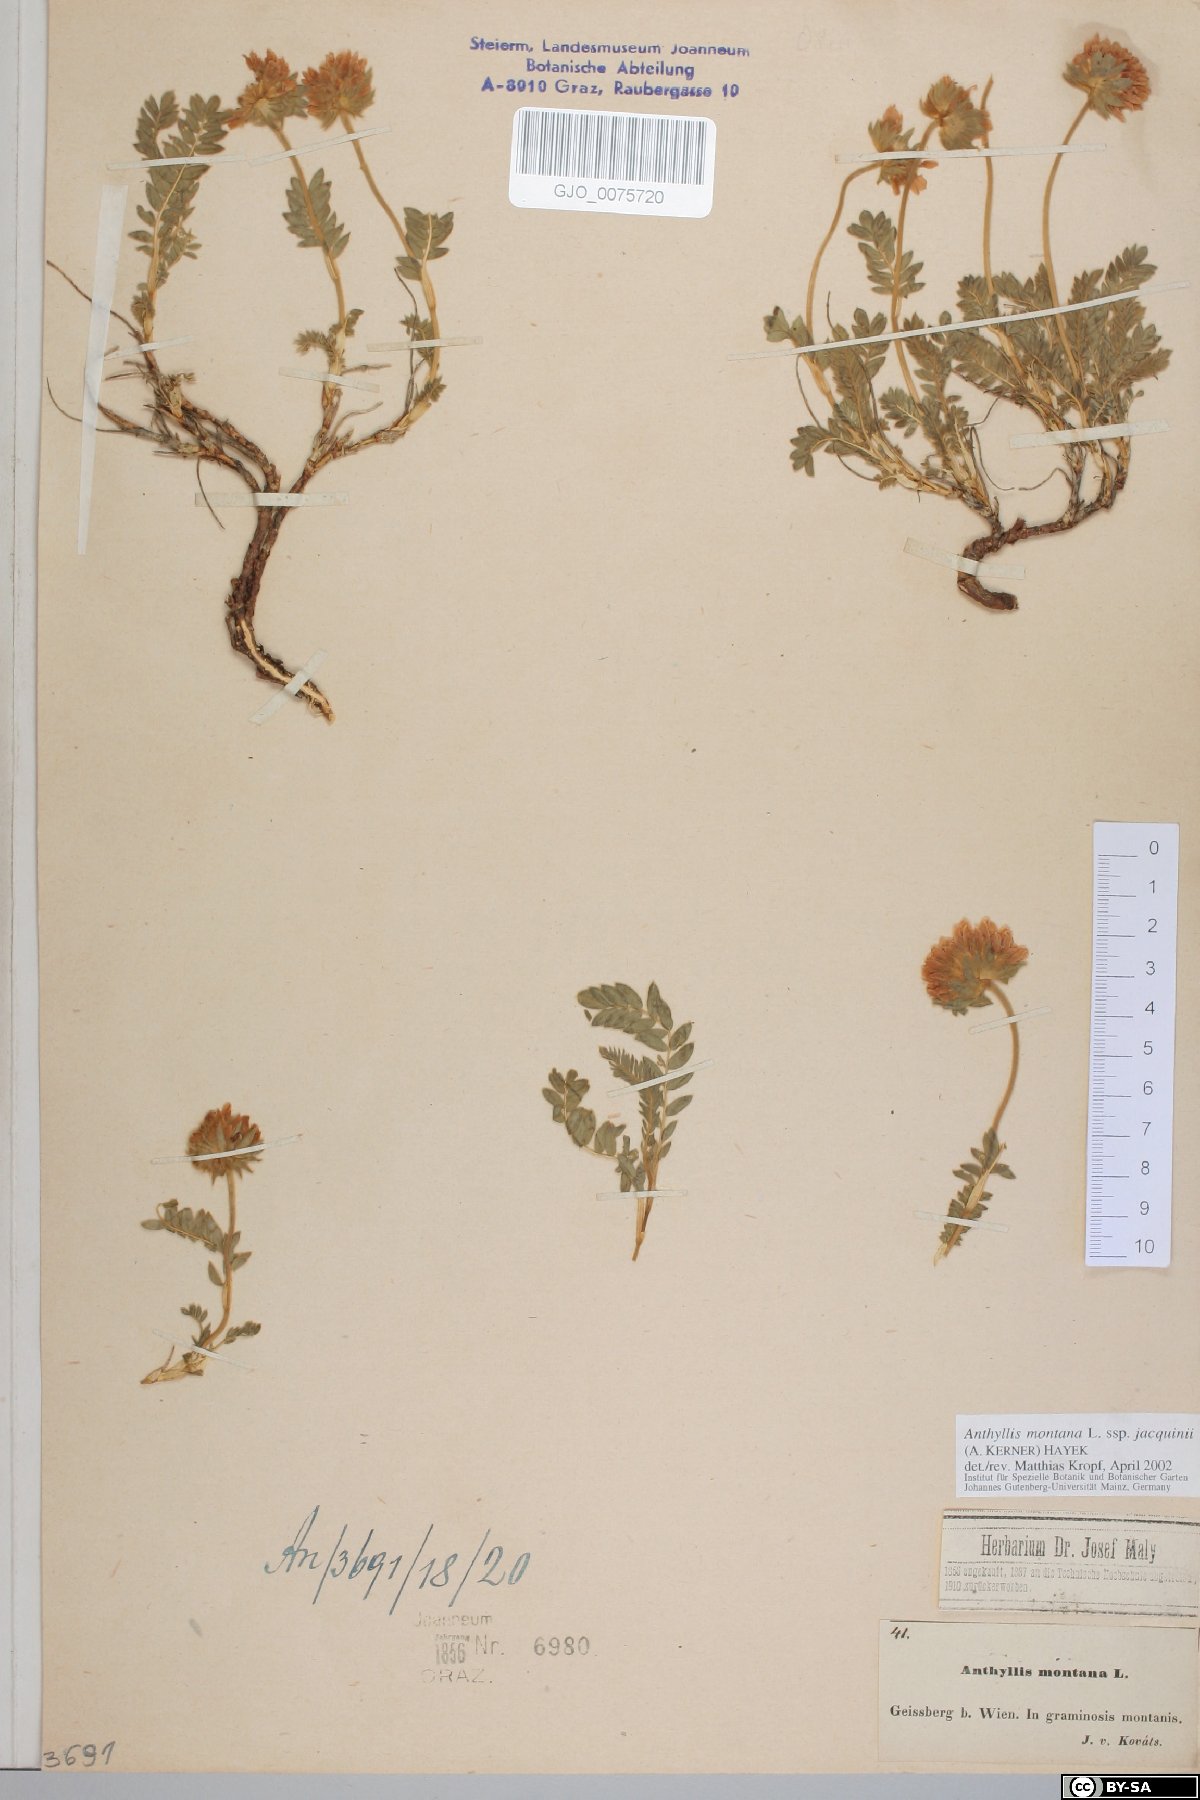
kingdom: Plantae
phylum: Tracheophyta
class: Magnoliopsida
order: Fabales
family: Fabaceae
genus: Anthyllis
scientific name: Anthyllis montana
